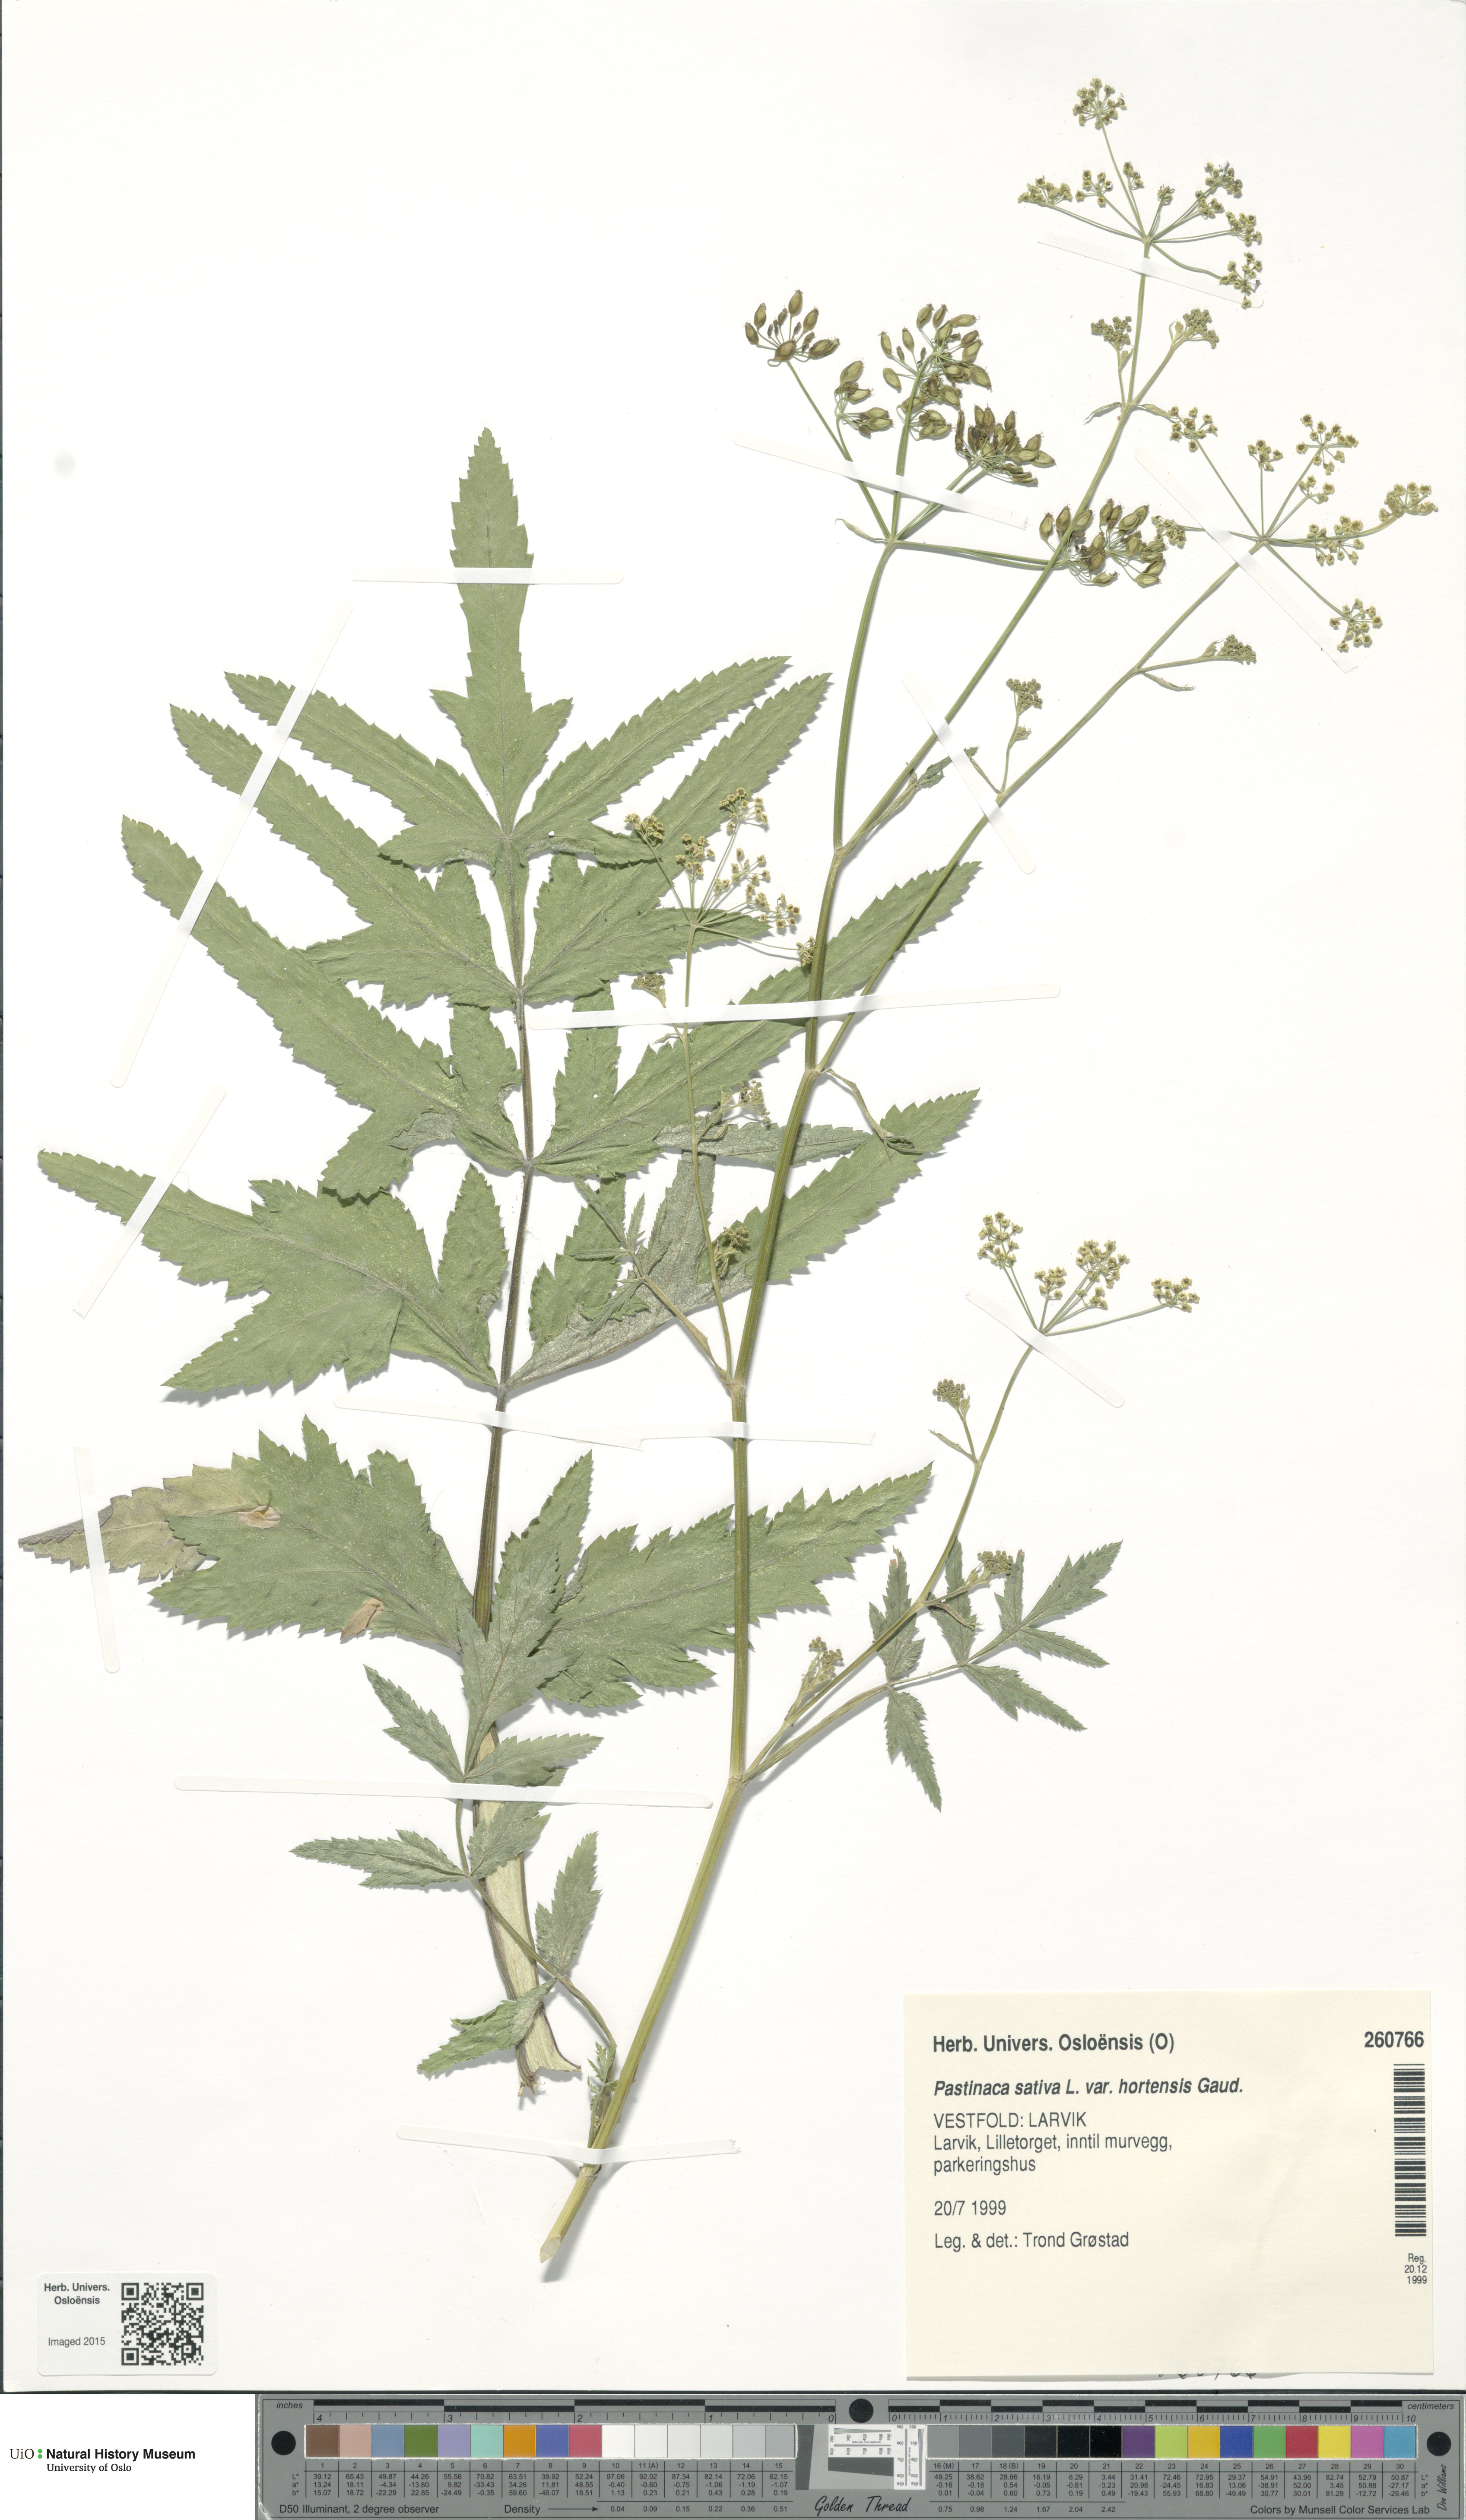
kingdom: Plantae
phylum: Tracheophyta
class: Magnoliopsida
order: Apiales
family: Apiaceae
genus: Pastinaca
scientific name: Pastinaca sativa
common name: Wild parsnip
